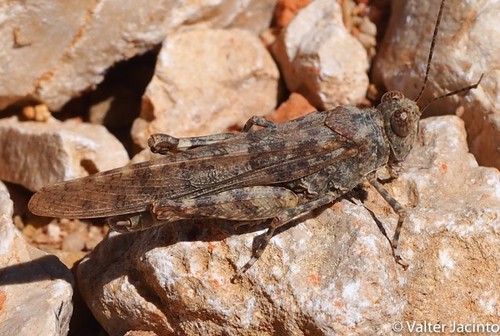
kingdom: Animalia
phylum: Arthropoda
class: Insecta
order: Orthoptera
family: Acrididae
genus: Sphingonotus
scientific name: Sphingonotus rubescens
